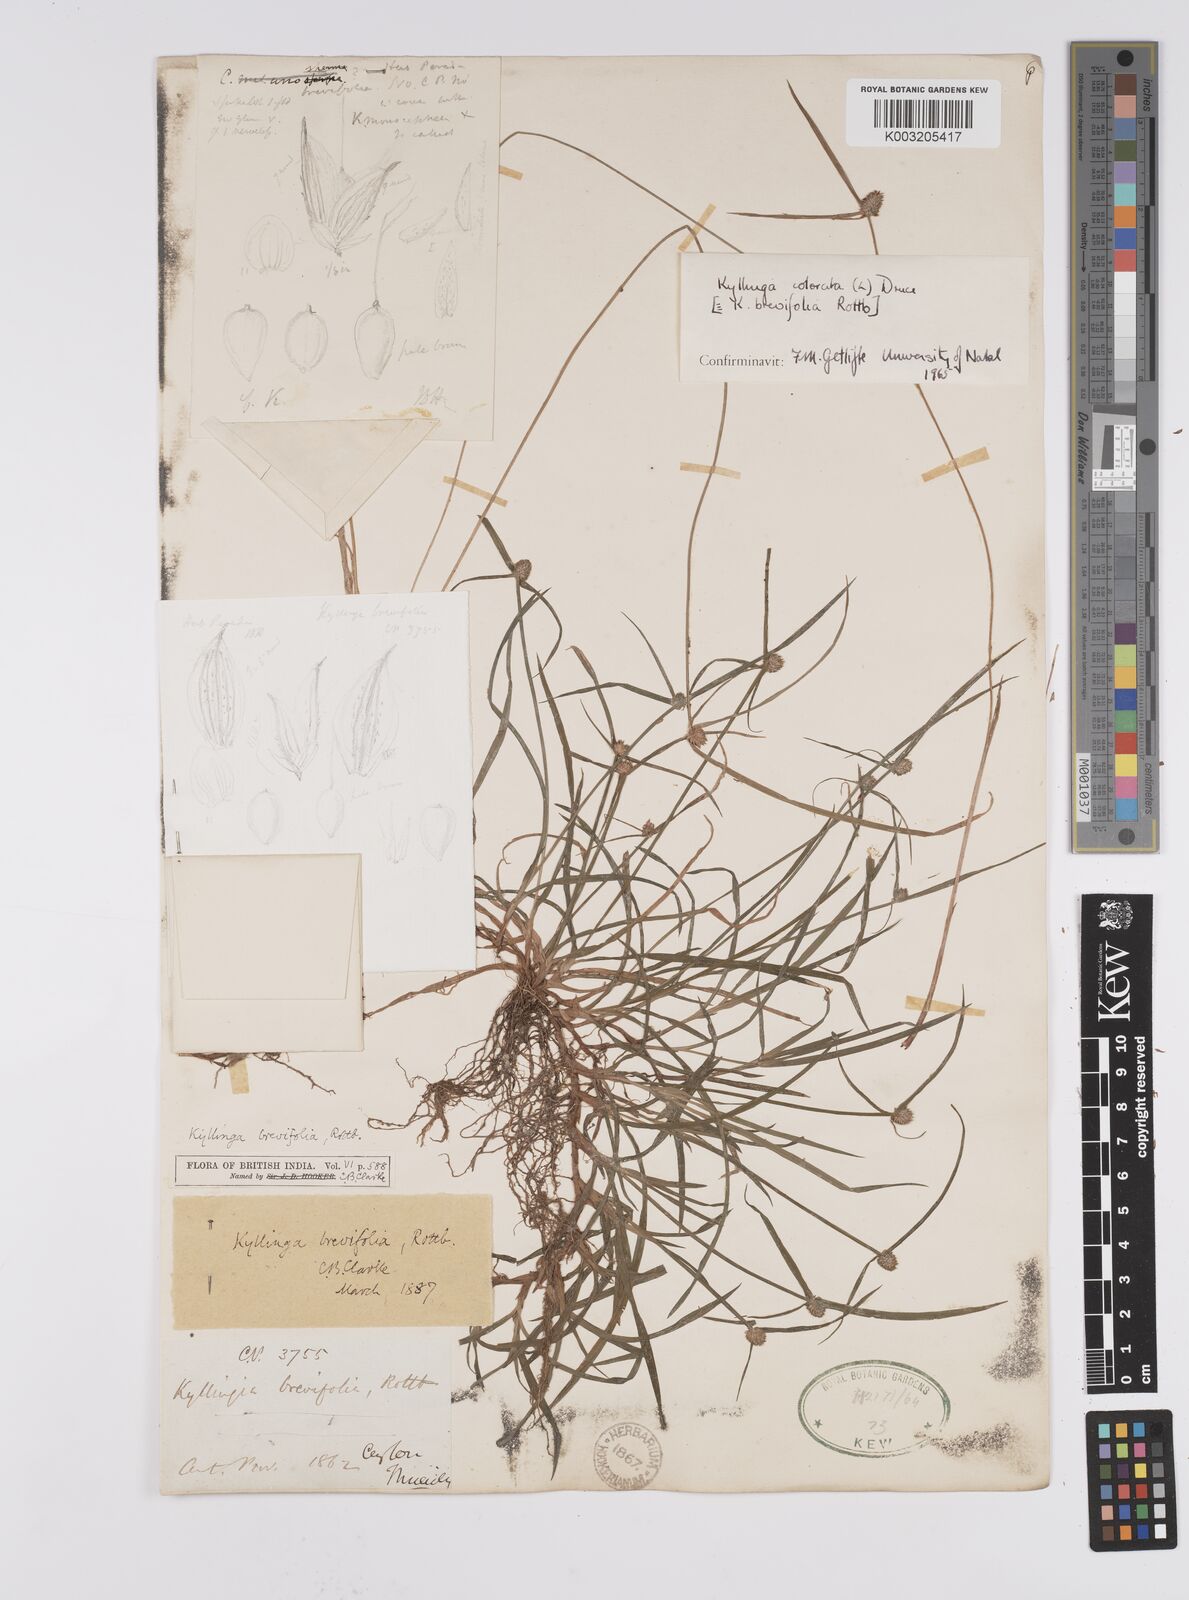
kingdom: Plantae
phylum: Tracheophyta
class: Liliopsida
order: Poales
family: Cyperaceae
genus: Cyperus
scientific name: Cyperus brevifolius
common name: Globe kyllinga
